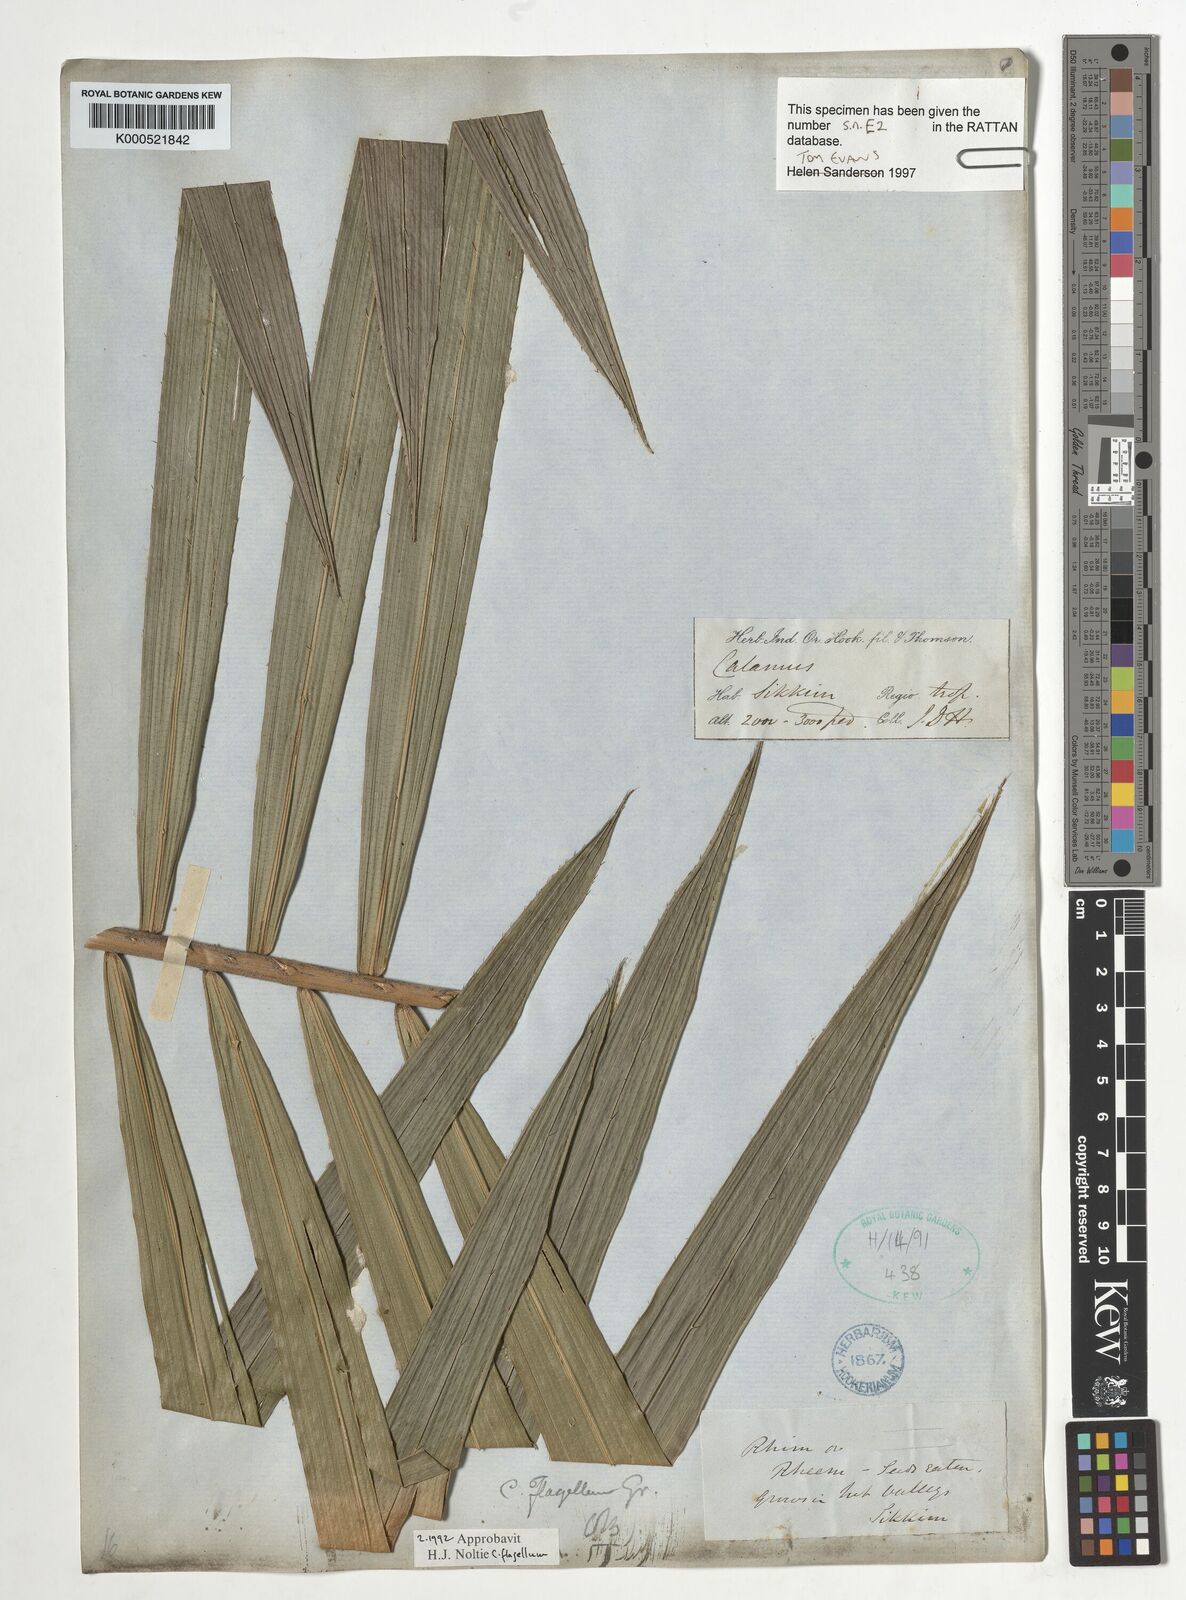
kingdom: Plantae
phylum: Tracheophyta
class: Liliopsida
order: Arecales
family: Arecaceae
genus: Calamus
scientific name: Calamus
